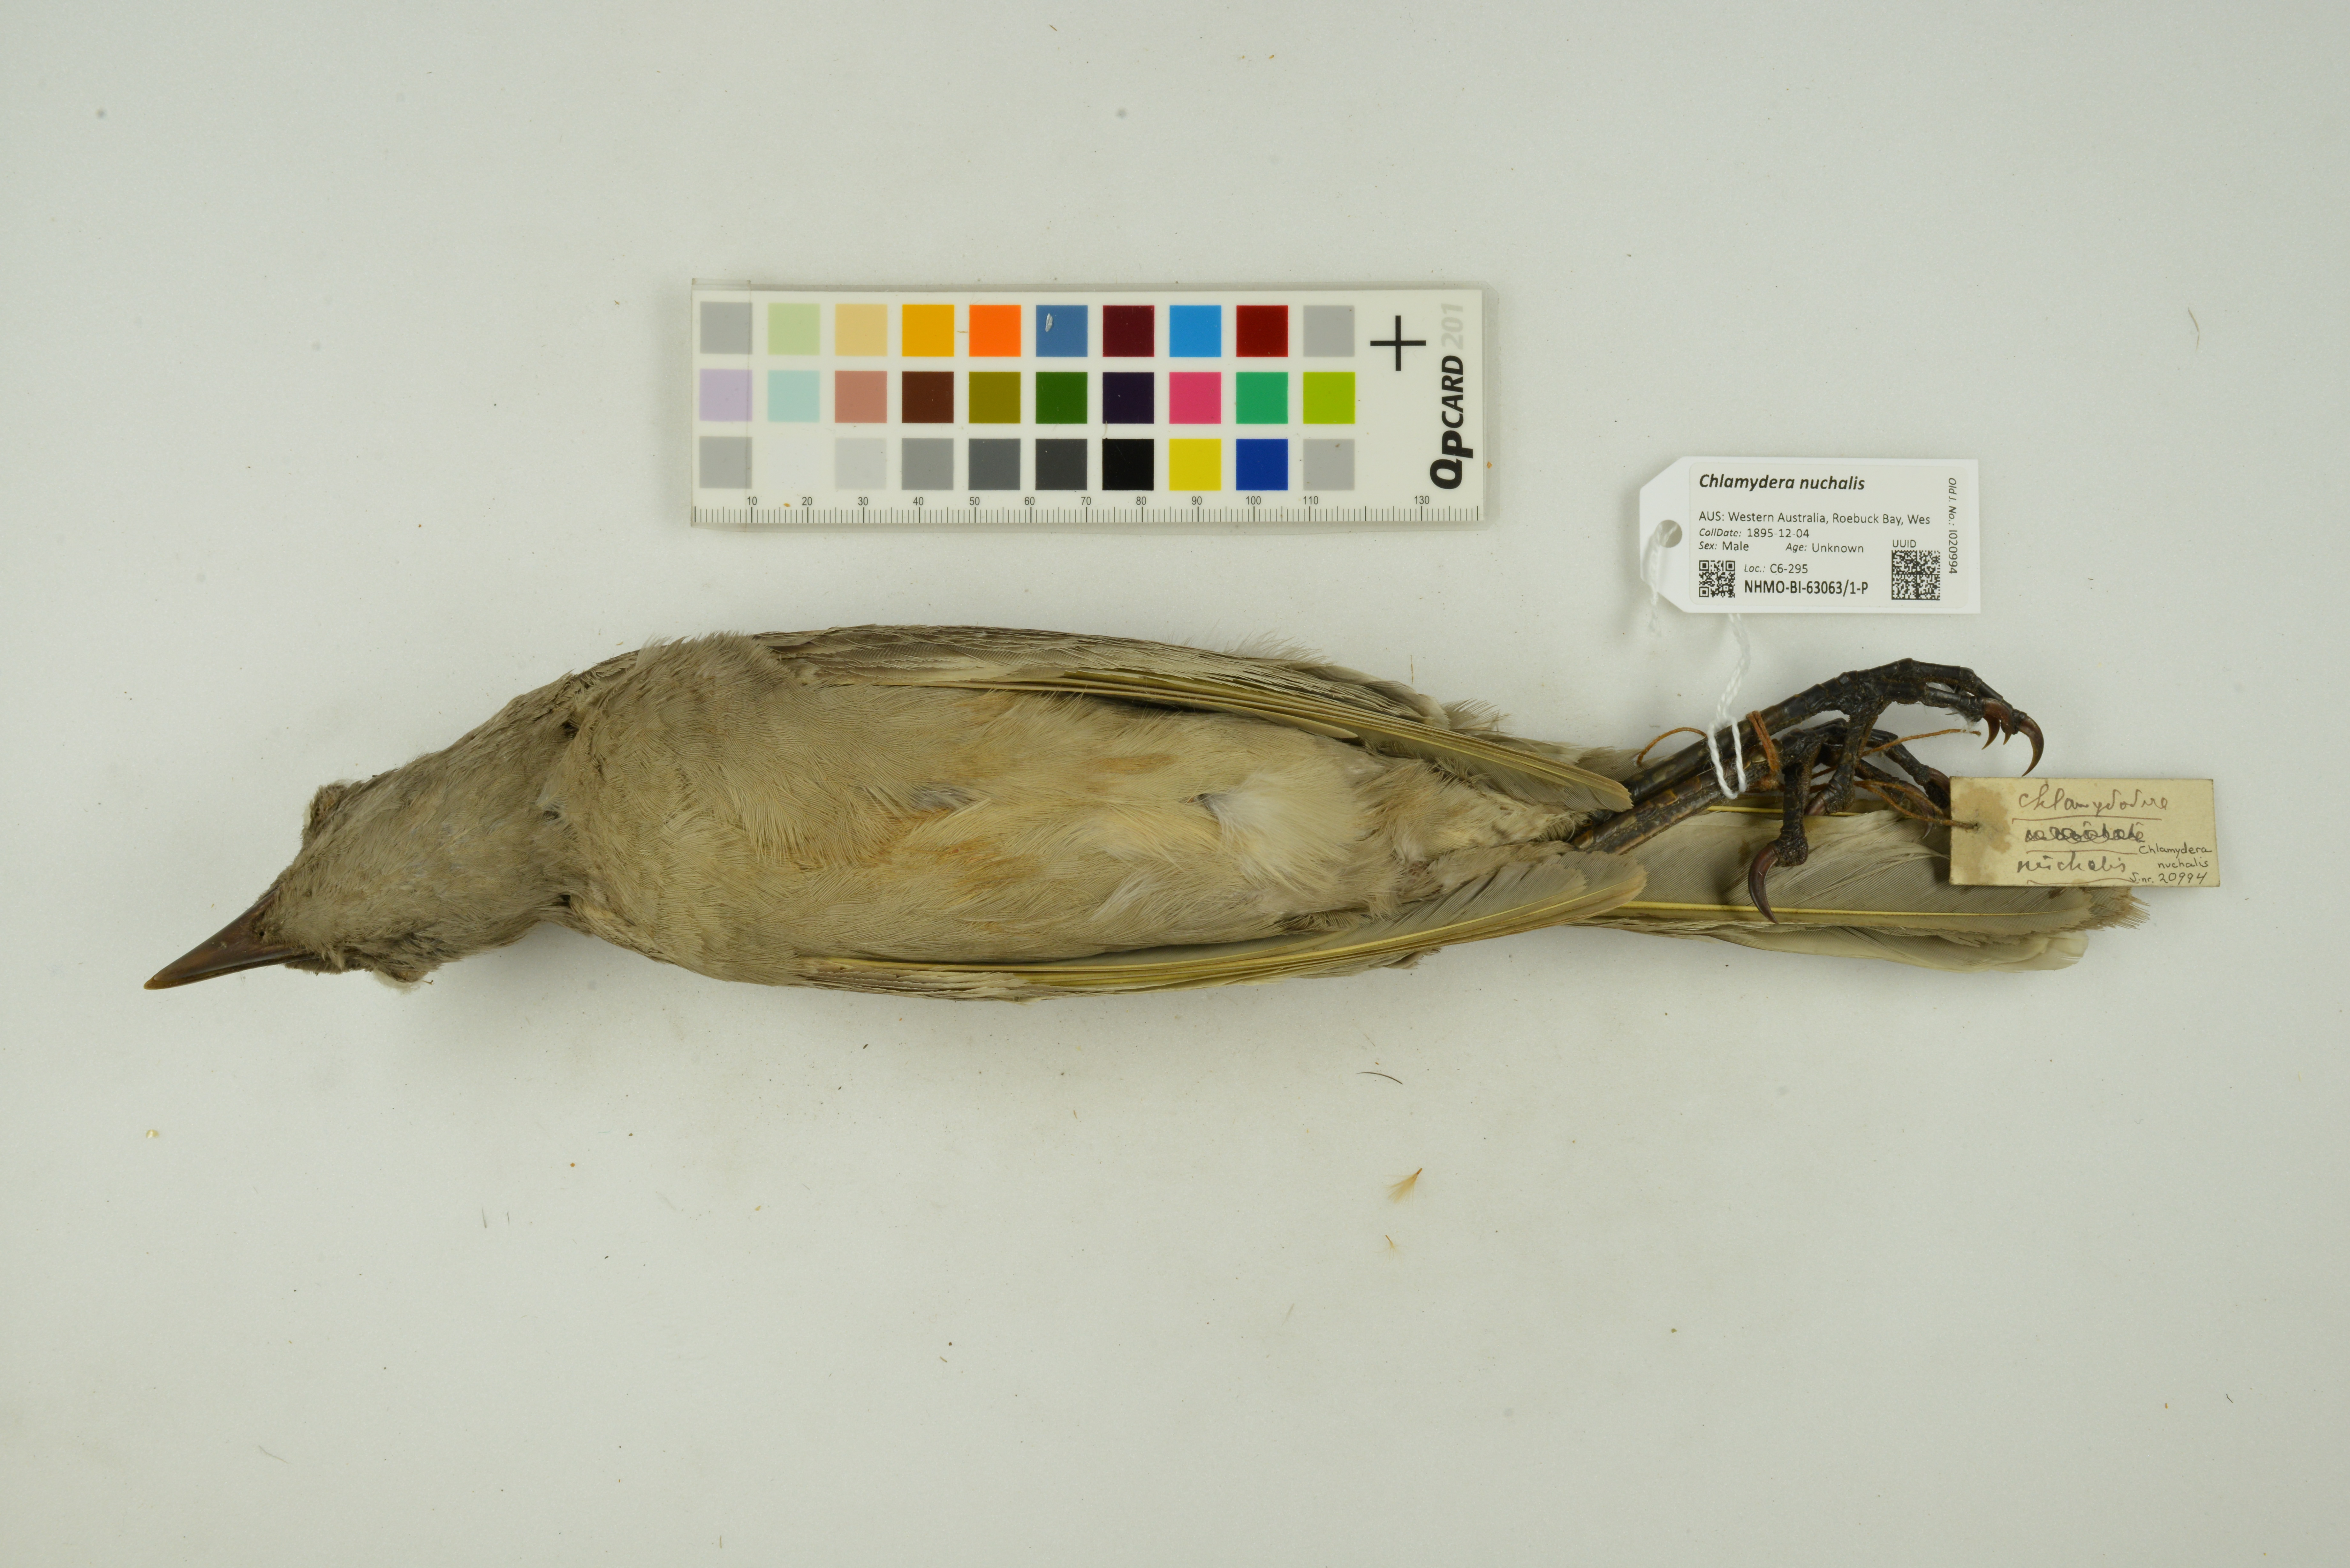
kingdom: Animalia
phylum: Chordata
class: Aves
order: Passeriformes
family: Ptilonorhynchidae
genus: Chlamydera
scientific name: Chlamydera nuchalis
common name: Great bowerbird
